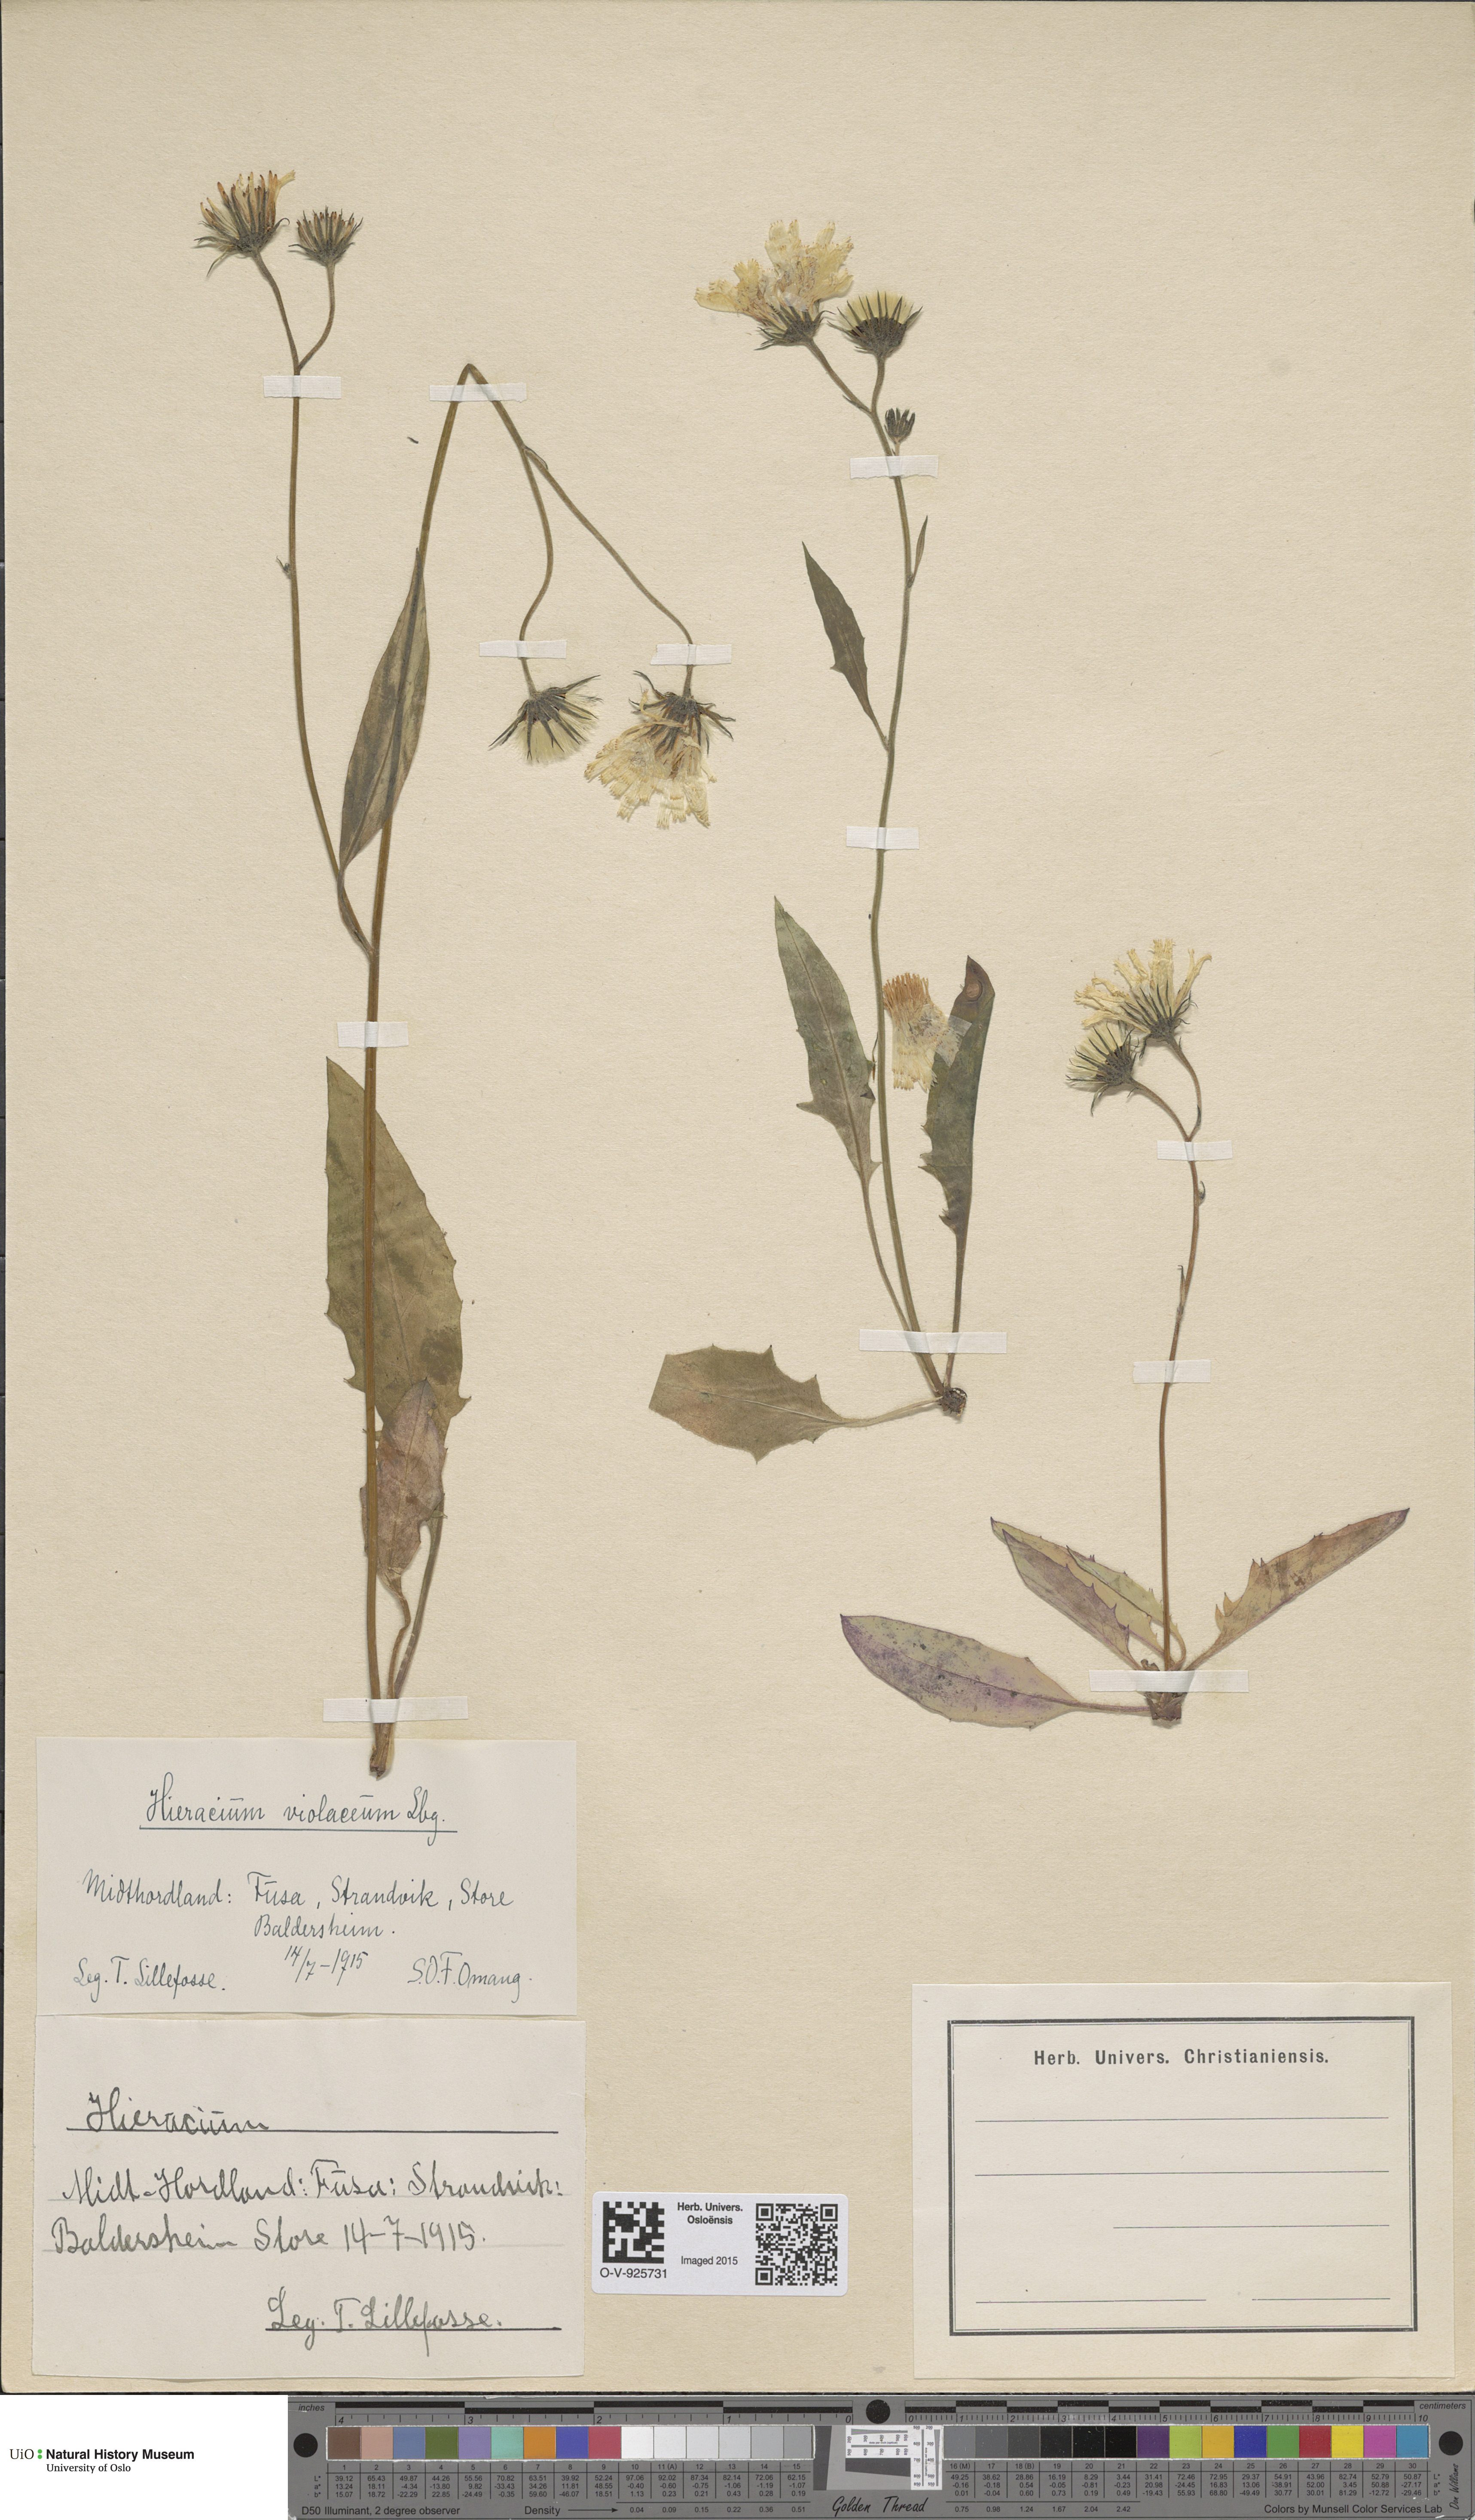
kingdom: Plantae
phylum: Tracheophyta
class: Magnoliopsida
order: Asterales
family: Asteraceae
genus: Hieracium
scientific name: Hieracium
